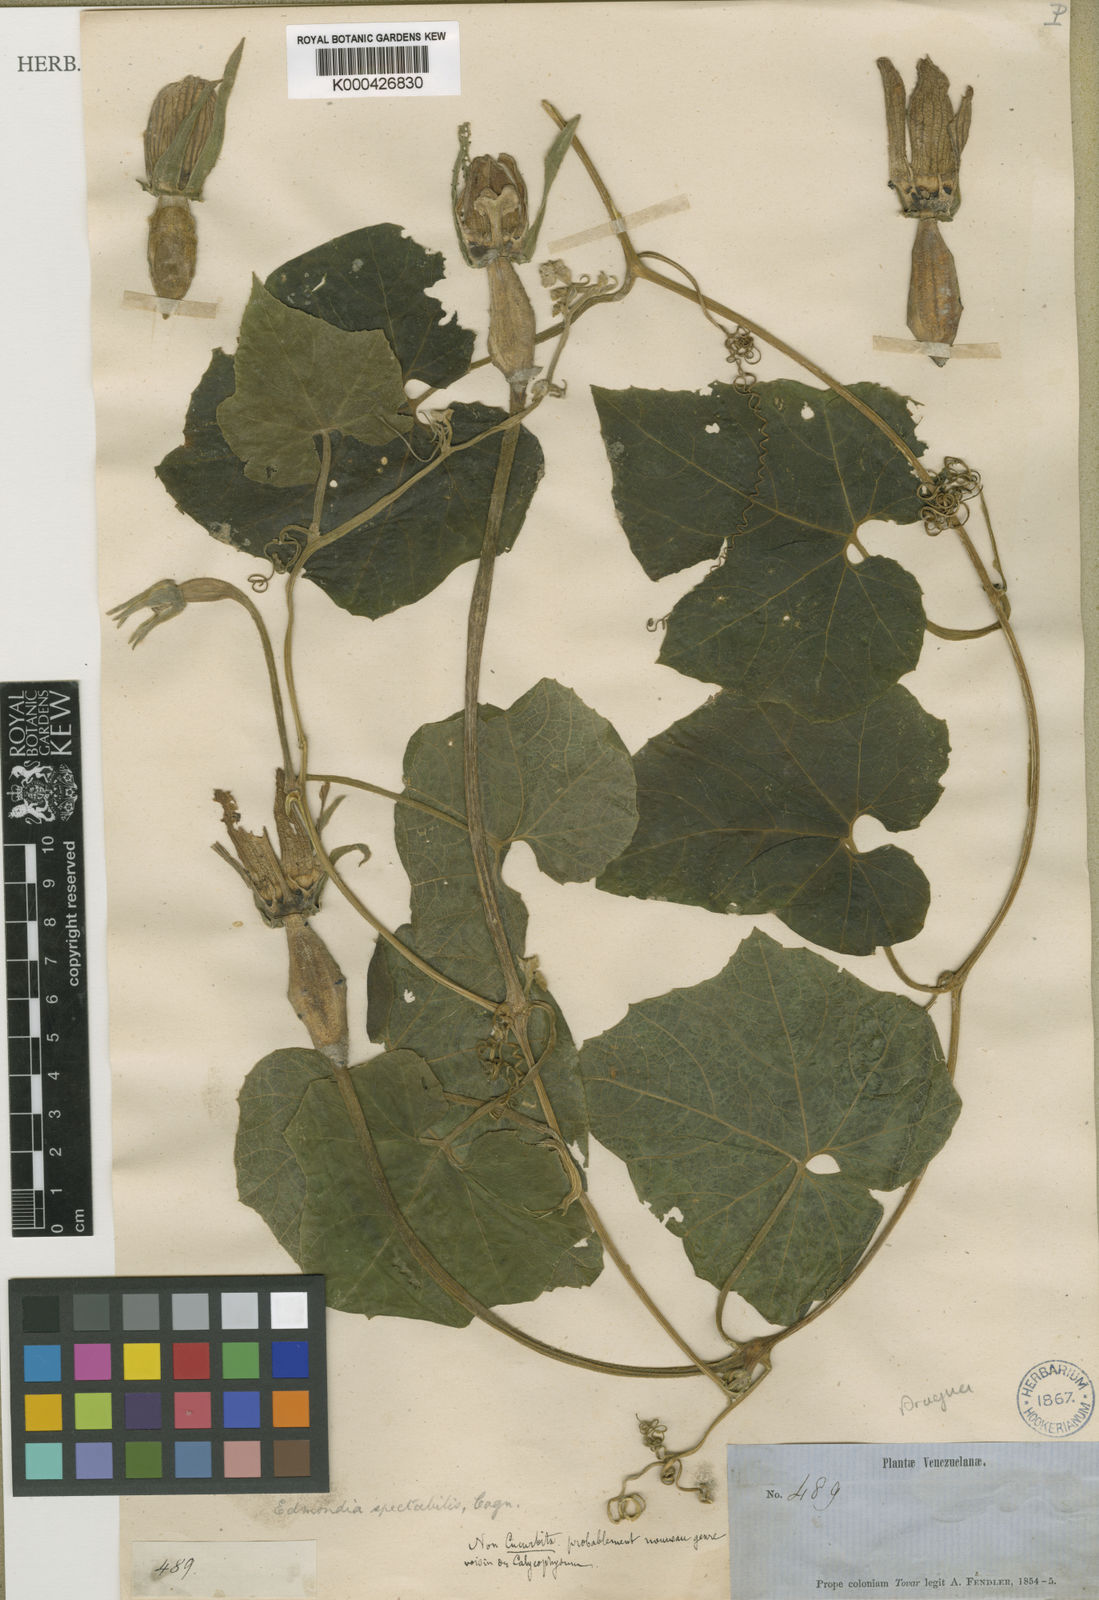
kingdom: Plantae
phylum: Tracheophyta
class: Magnoliopsida
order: Cucurbitales
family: Cucurbitaceae
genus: Calycophysum
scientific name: Calycophysum spectabile
